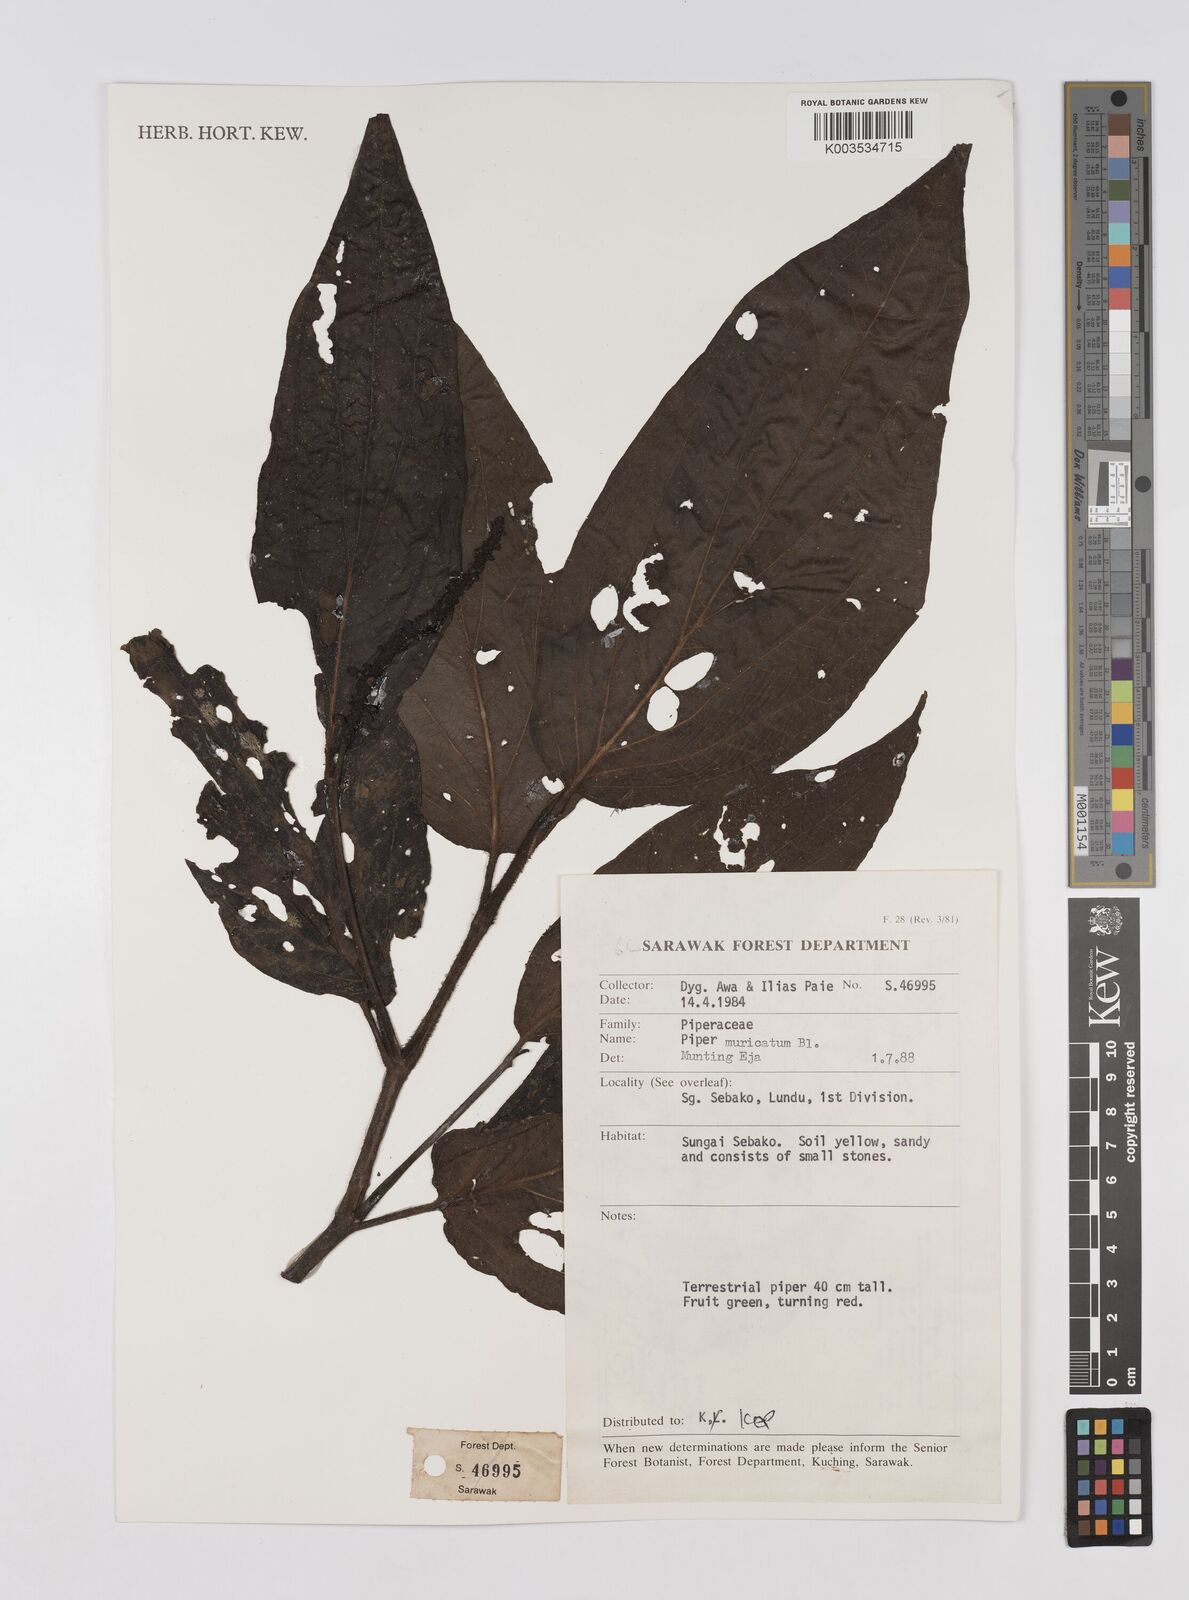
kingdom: Plantae
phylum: Tracheophyta
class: Magnoliopsida
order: Piperales
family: Piperaceae
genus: Piper
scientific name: Piper muricatum
